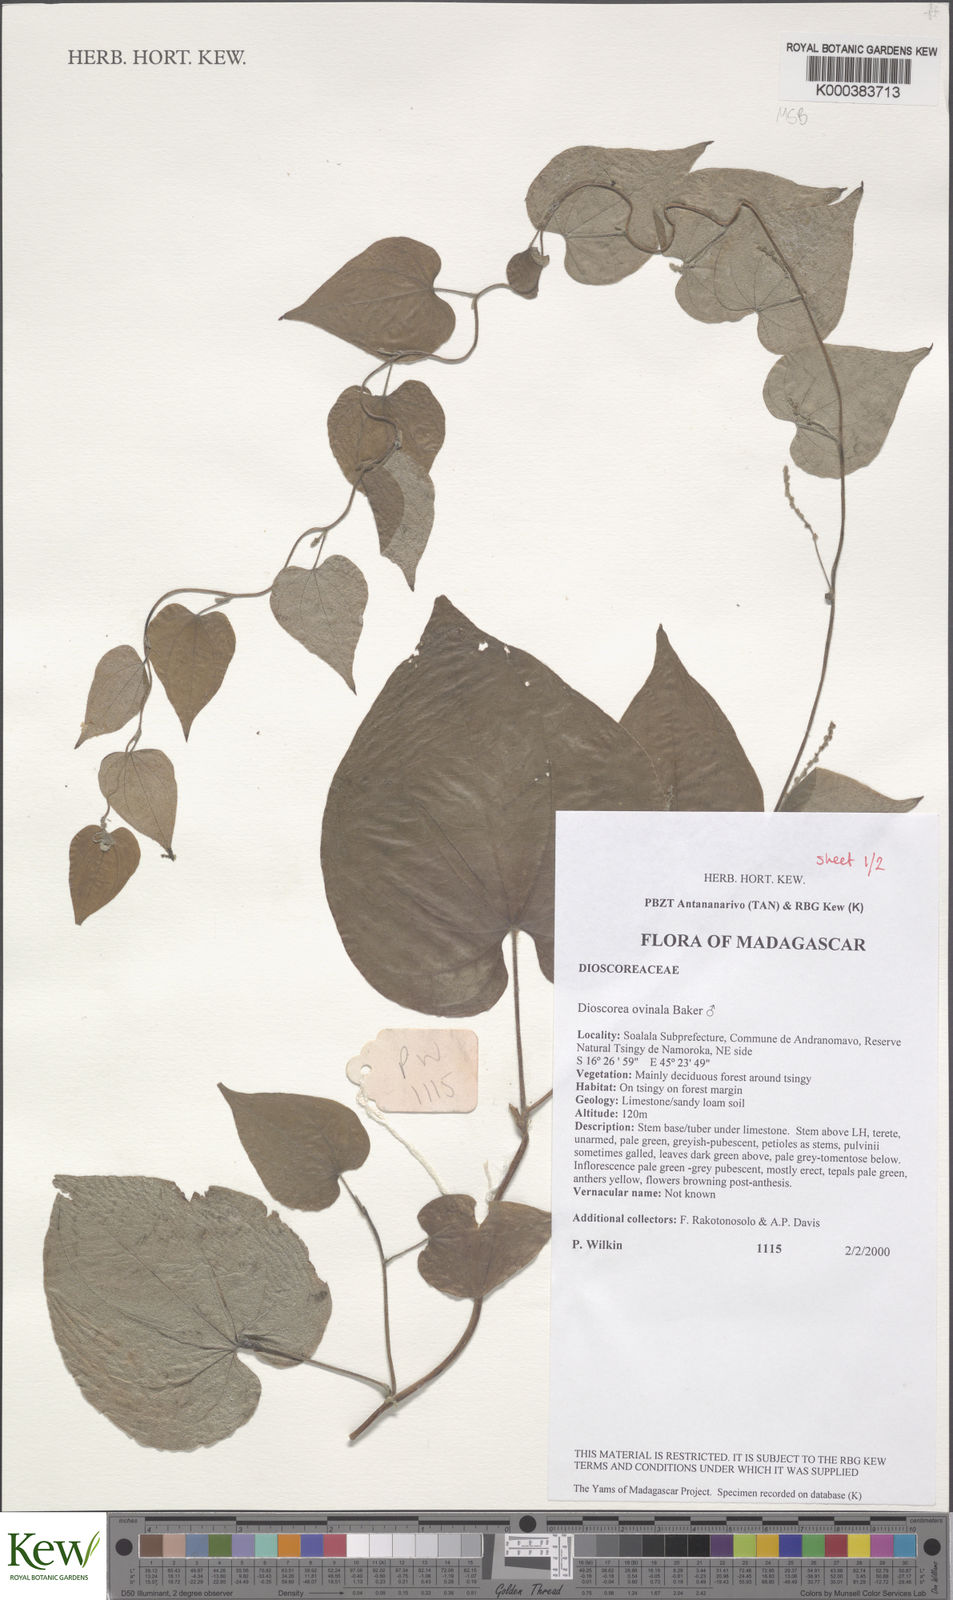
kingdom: Plantae
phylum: Tracheophyta
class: Liliopsida
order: Dioscoreales
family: Dioscoreaceae
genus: Dioscorea
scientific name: Dioscorea ovinala
